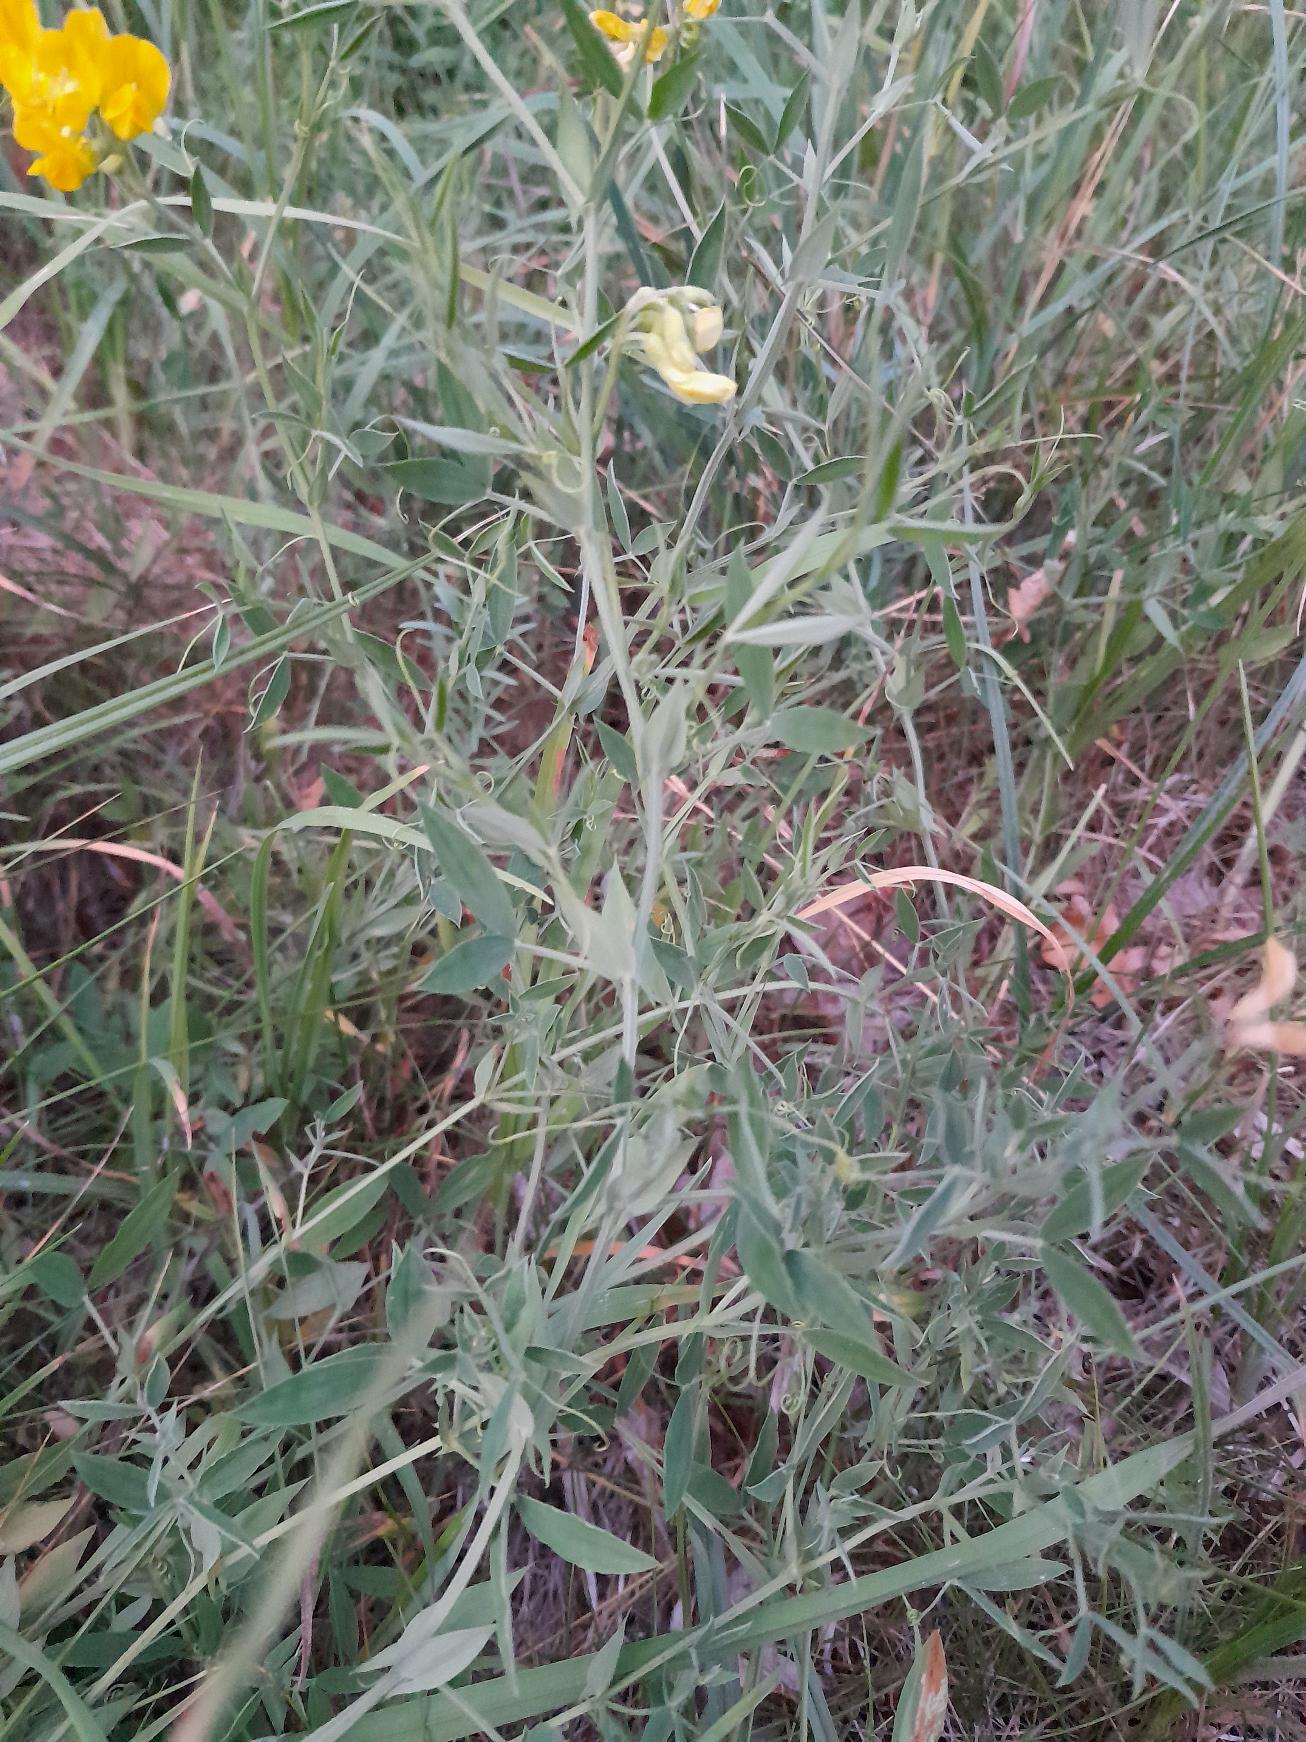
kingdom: Plantae
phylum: Tracheophyta
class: Magnoliopsida
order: Fabales
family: Fabaceae
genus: Lathyrus
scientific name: Lathyrus pratensis
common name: Gul fladbælg
